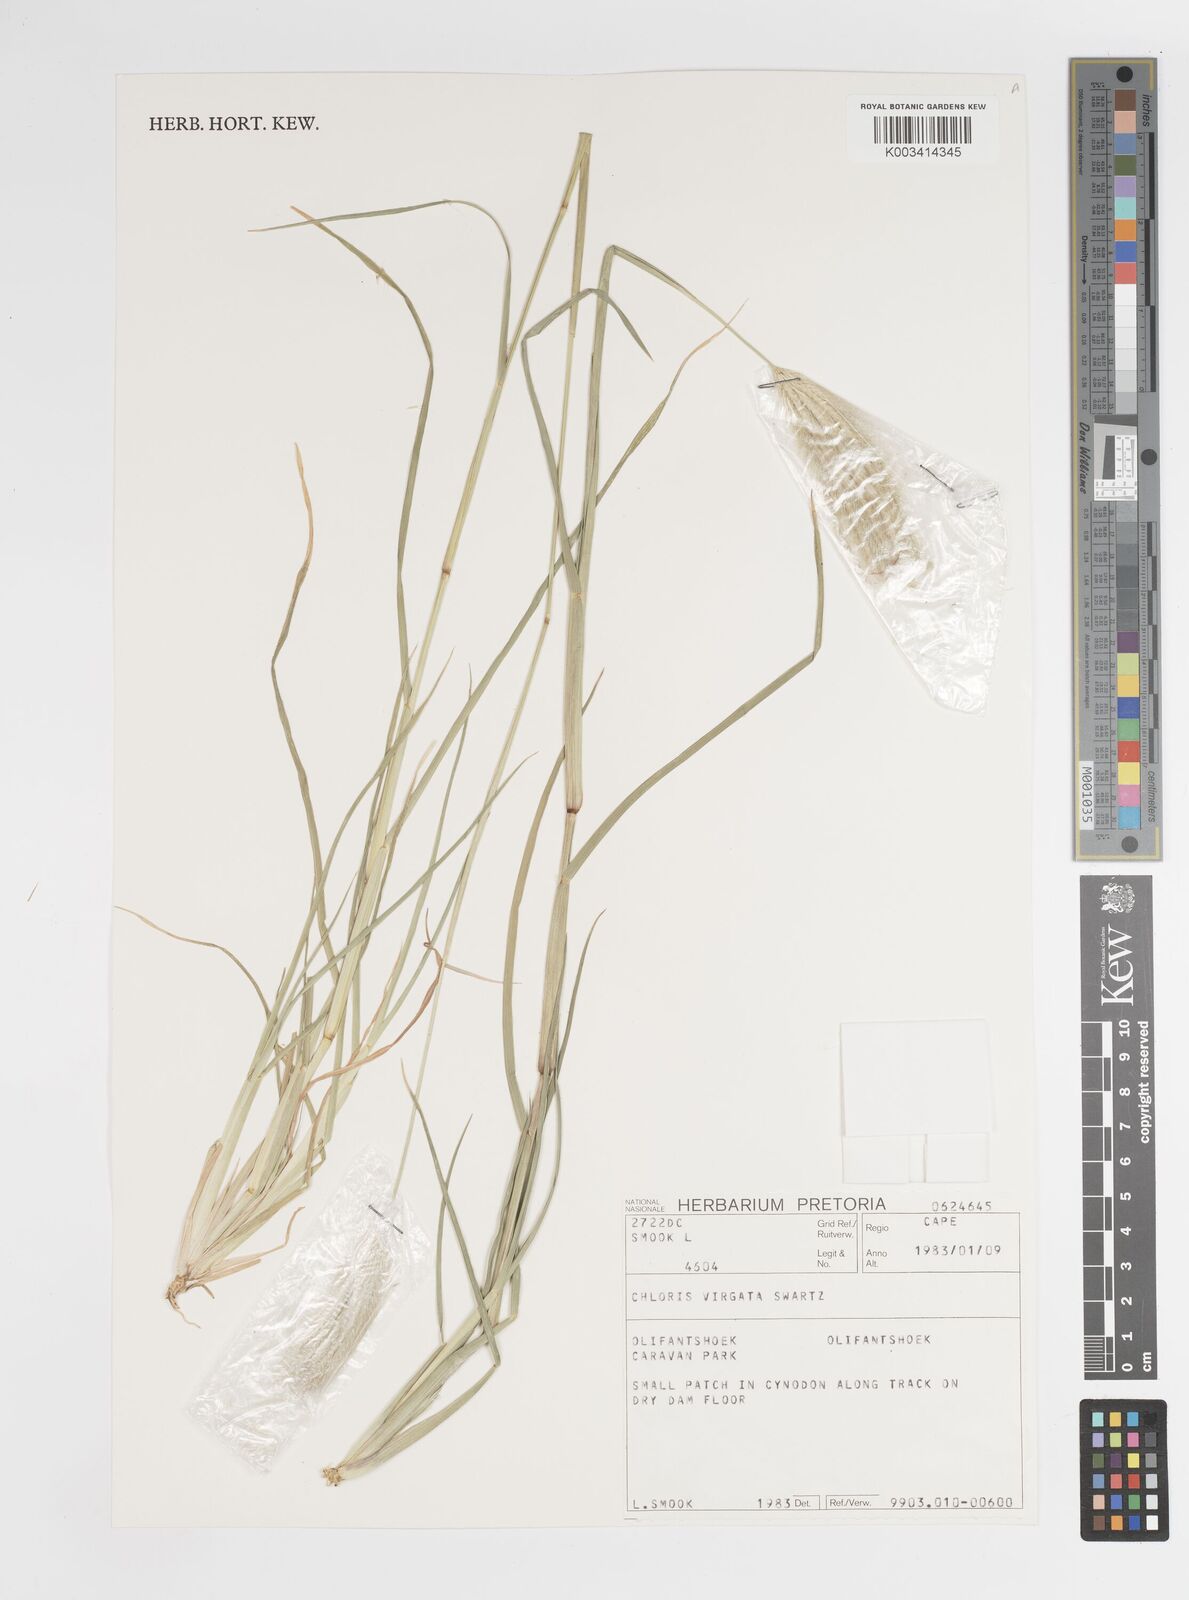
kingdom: Plantae
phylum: Tracheophyta
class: Liliopsida
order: Poales
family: Poaceae
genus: Chloris
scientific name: Chloris virgata
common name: Feathery rhodes-grass
